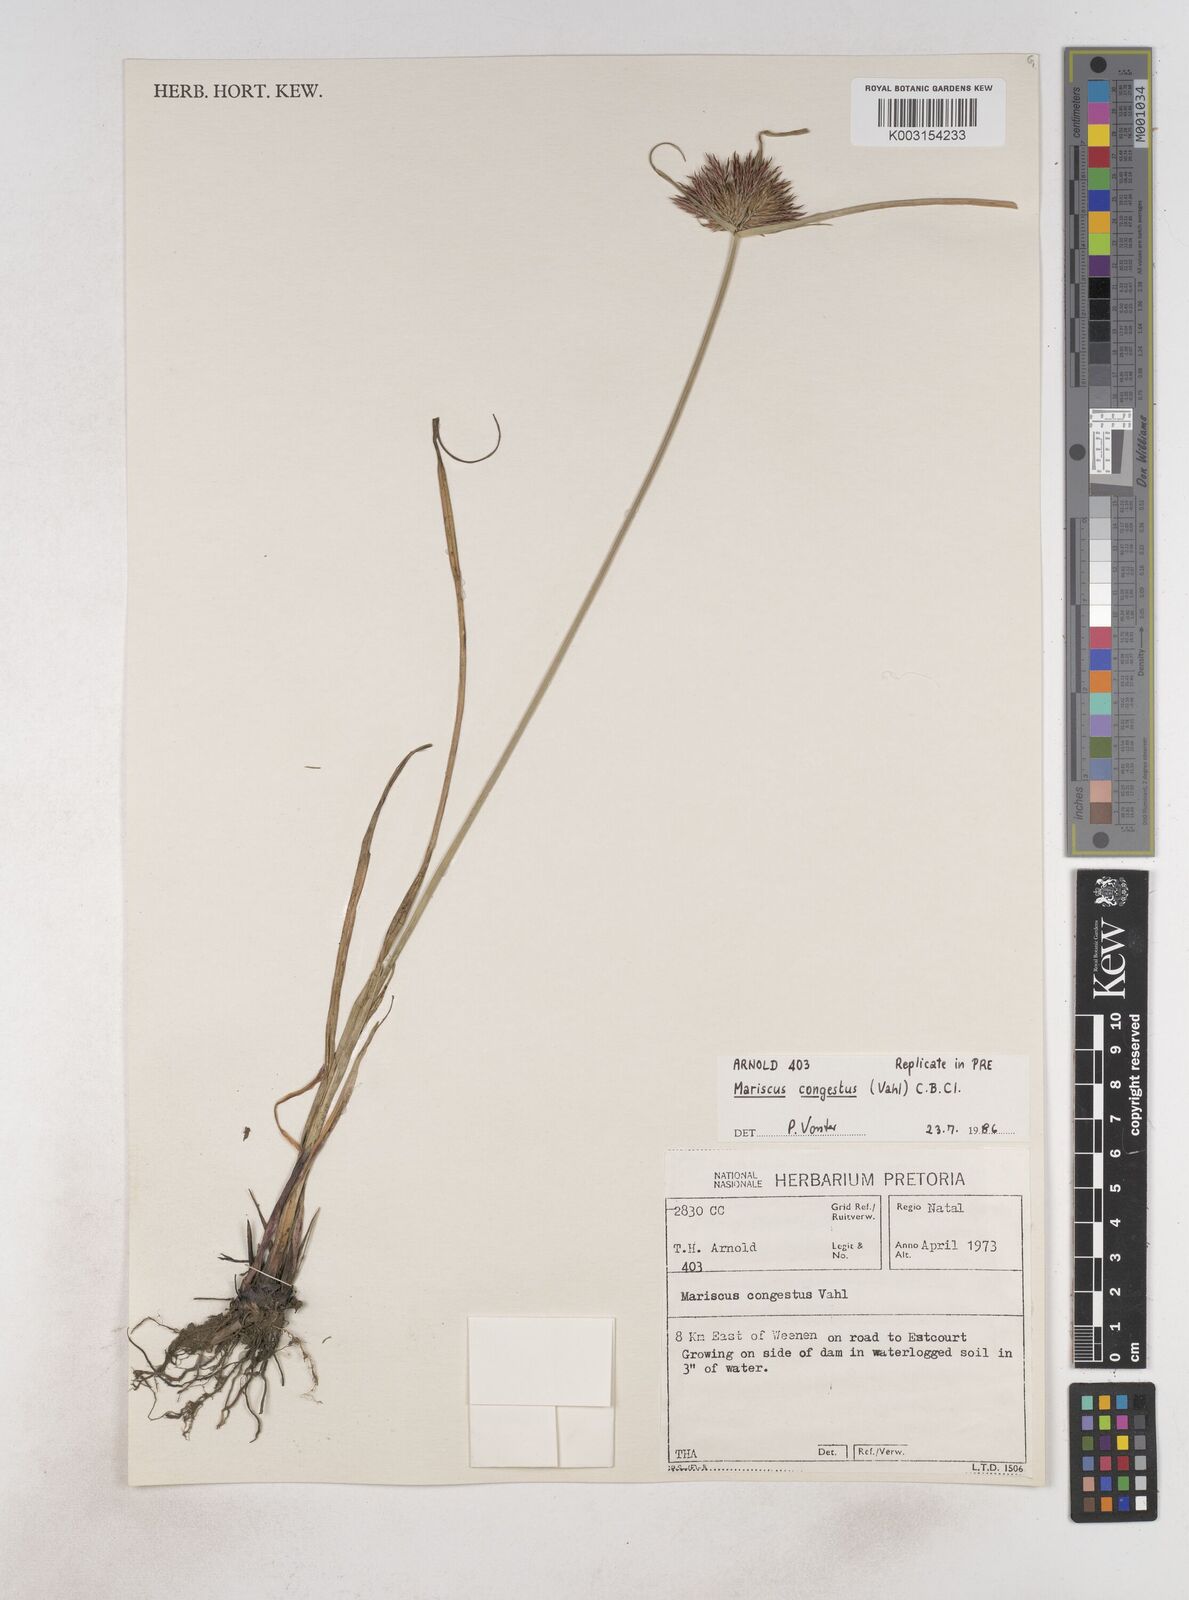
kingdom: Plantae
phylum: Tracheophyta
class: Liliopsida
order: Poales
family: Cyperaceae
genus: Cyperus
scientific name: Cyperus congestus
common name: Dense flat sedge
